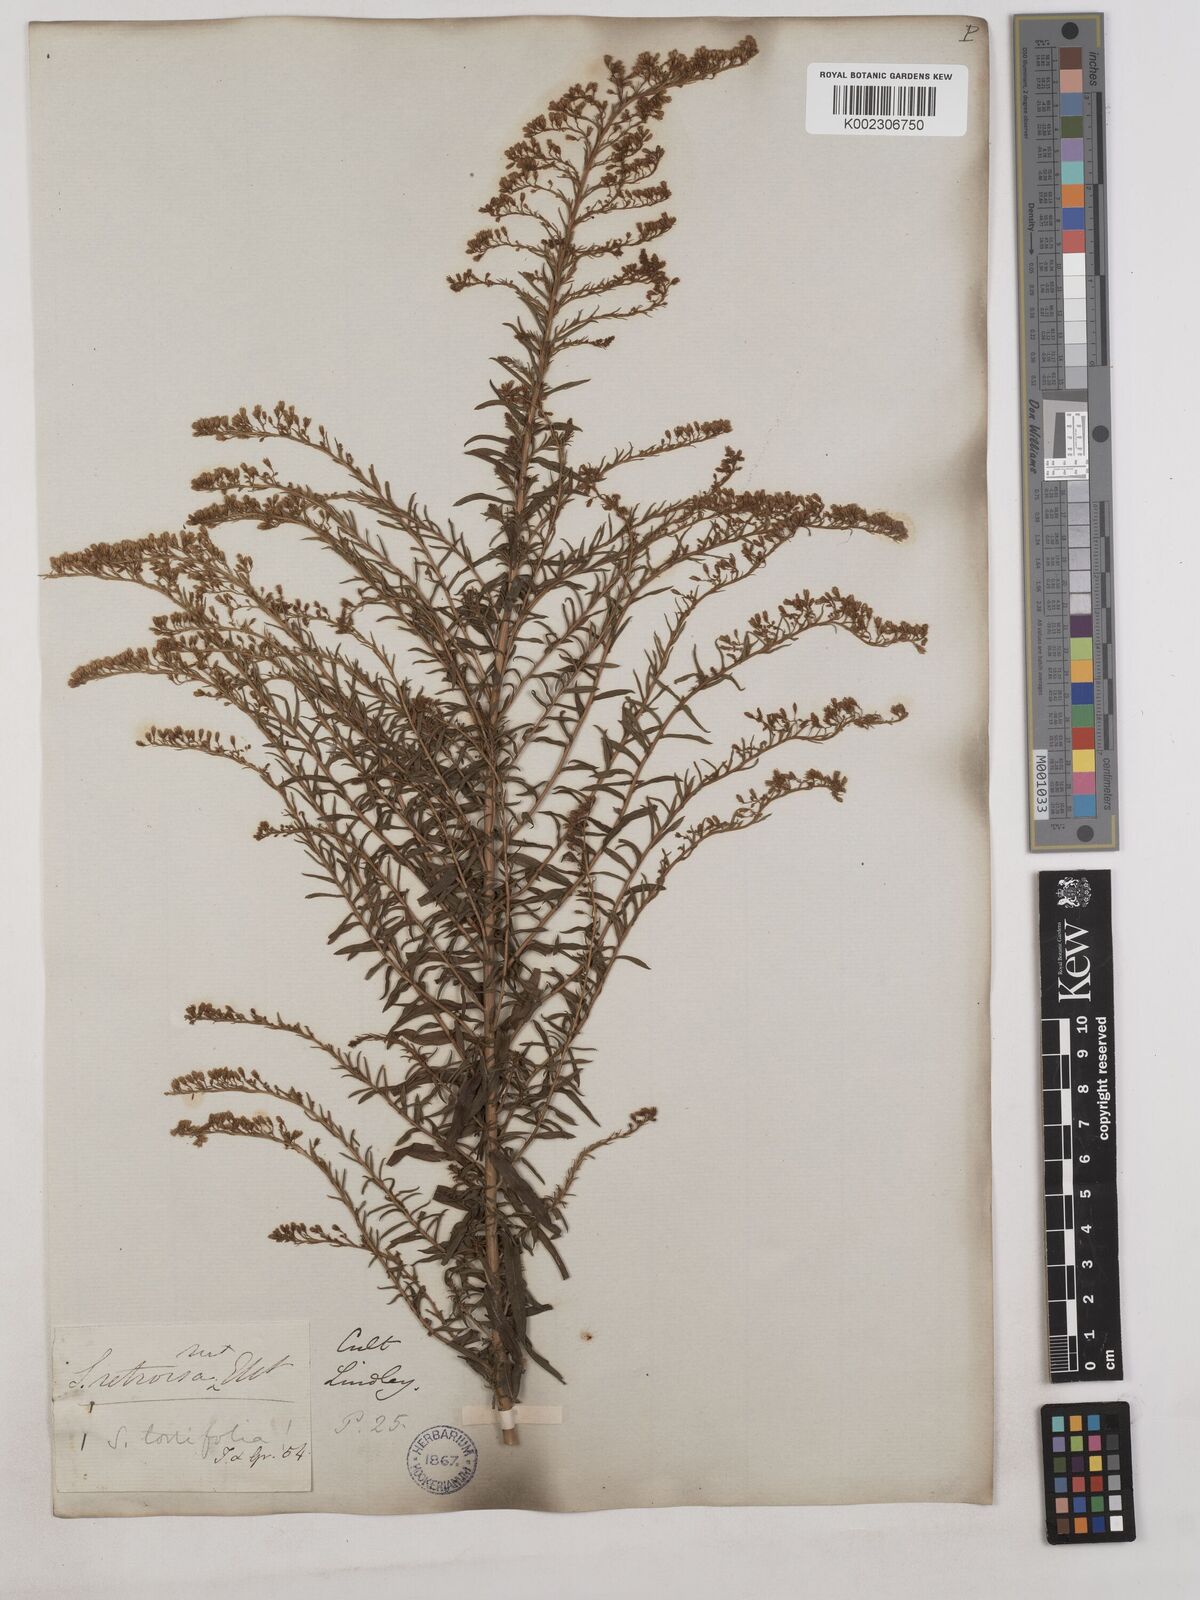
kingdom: Plantae
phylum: Tracheophyta
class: Magnoliopsida
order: Asterales
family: Asteraceae
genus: Solidago
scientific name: Solidago tortifolia
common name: Twisted-leaf goldenrod
